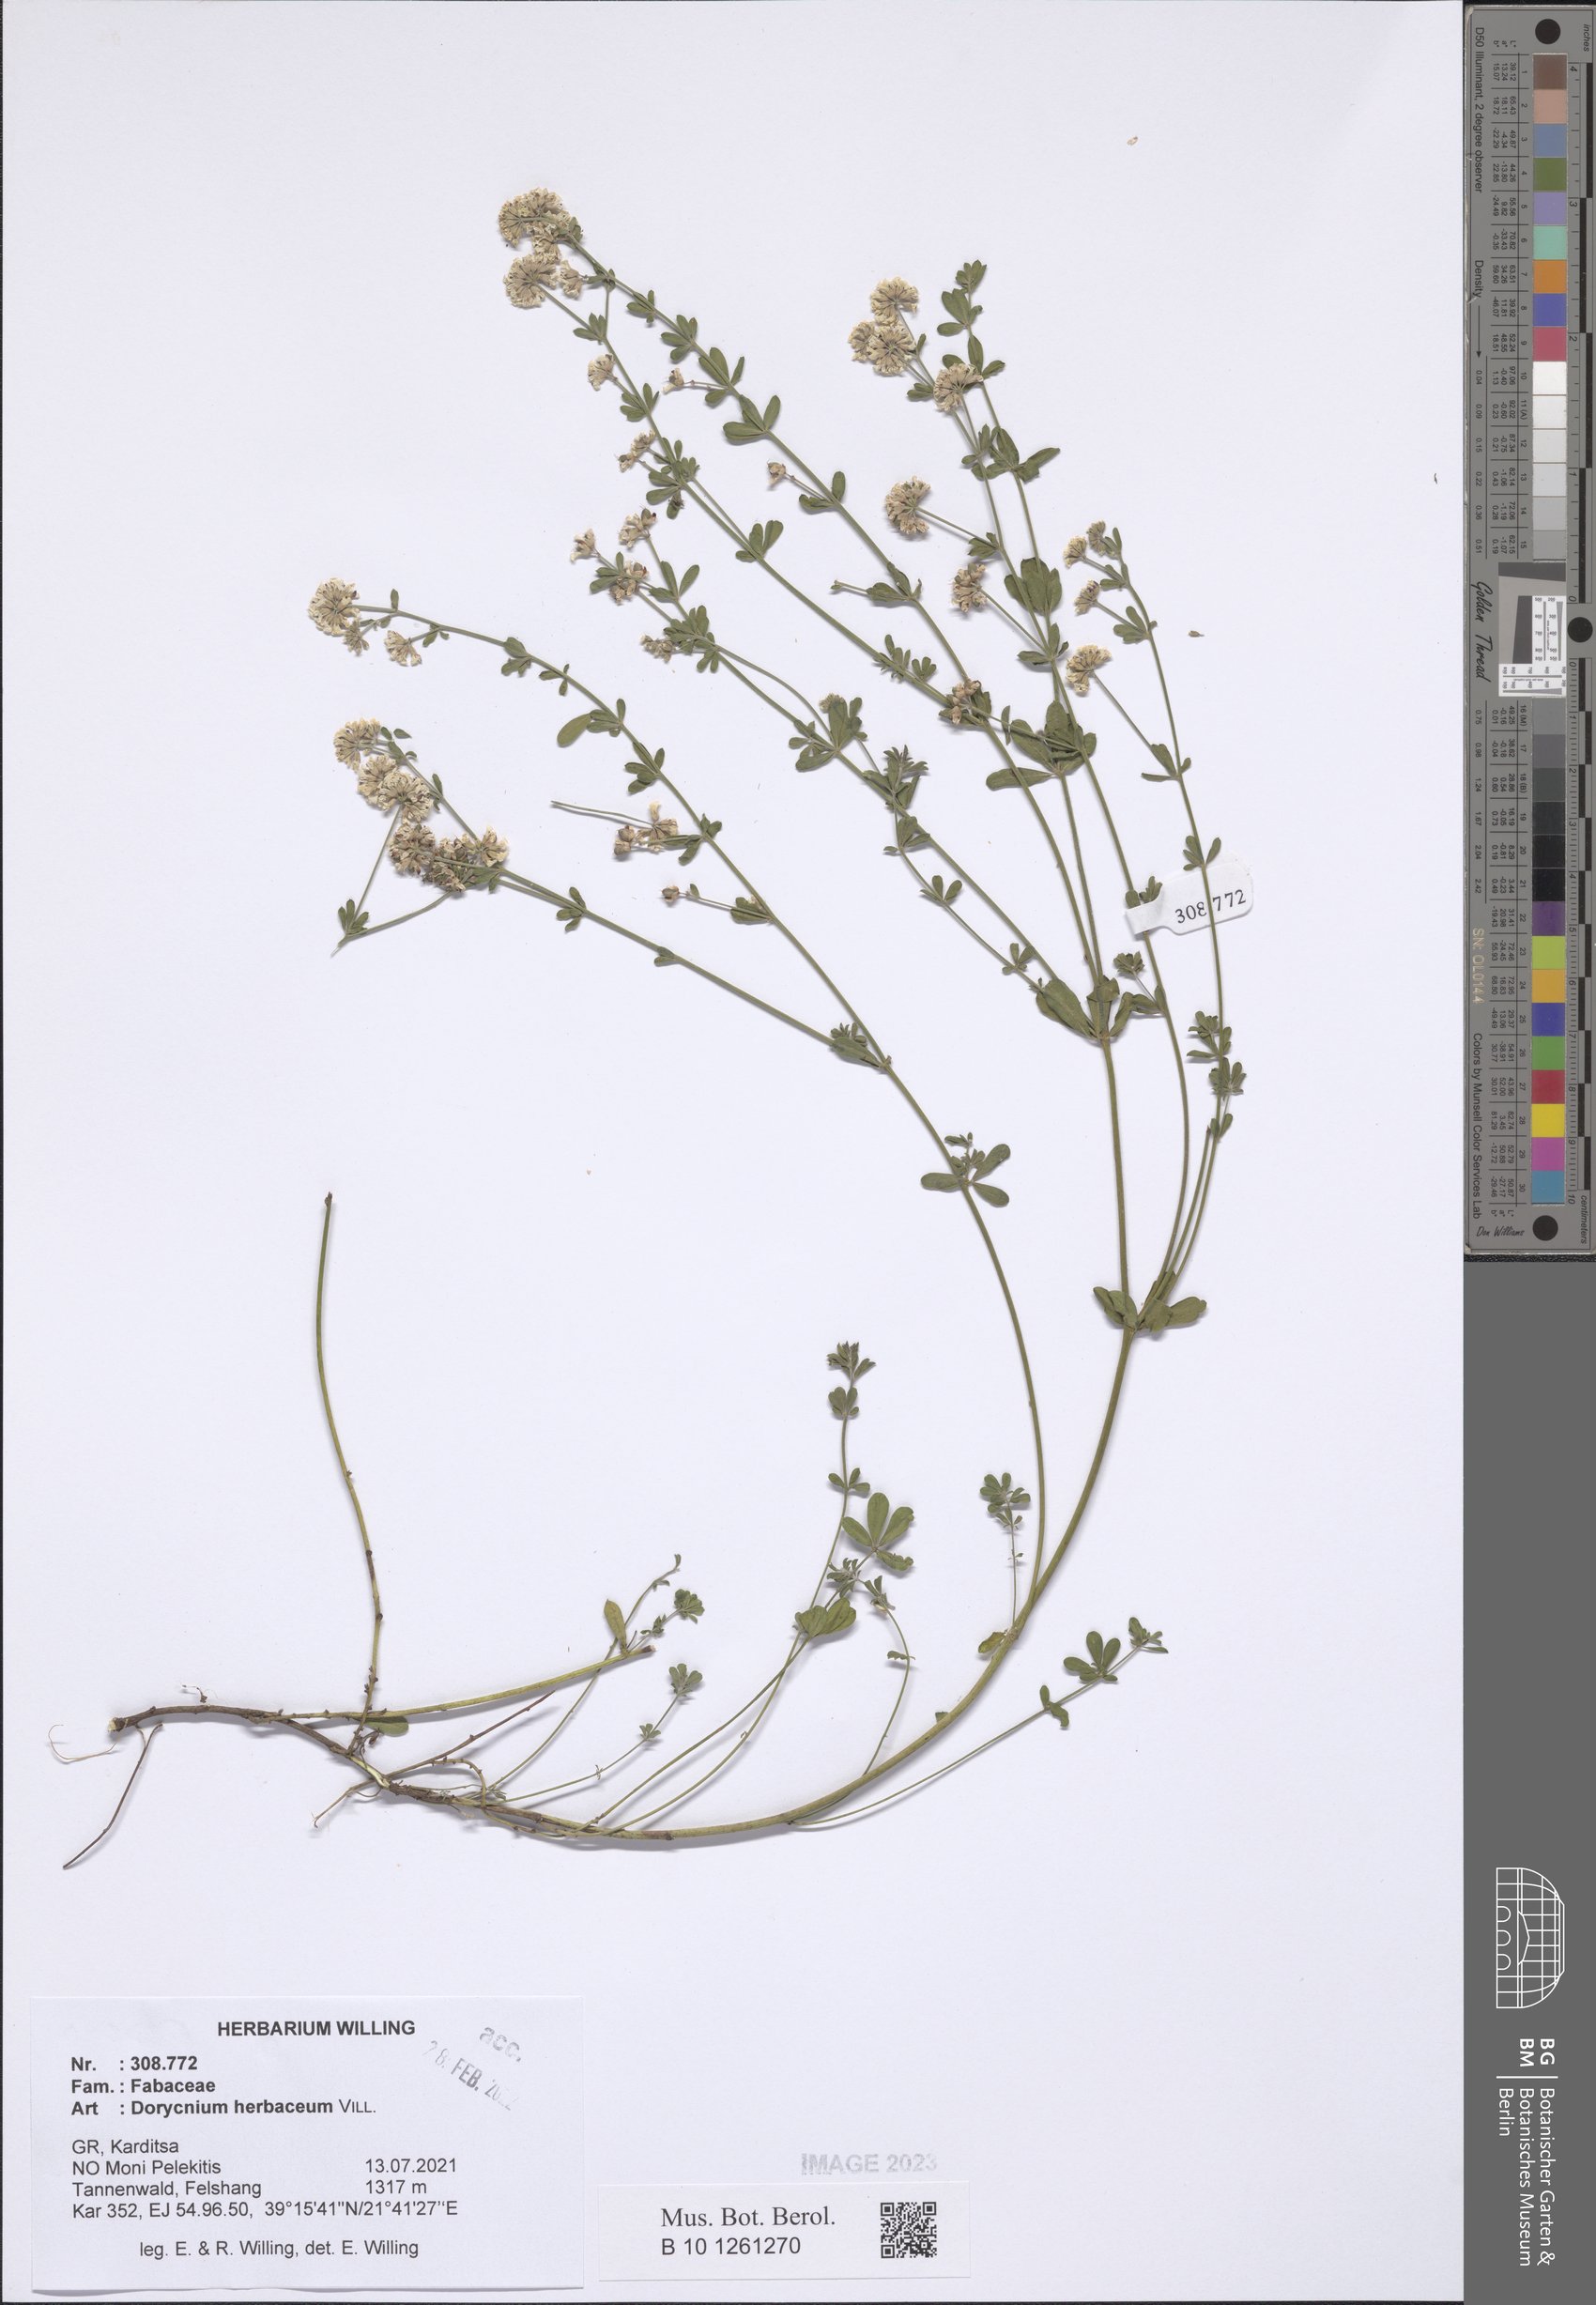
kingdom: Plantae
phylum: Tracheophyta
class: Magnoliopsida
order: Fabales
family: Fabaceae
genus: Lotus
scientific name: Lotus herbaceus
